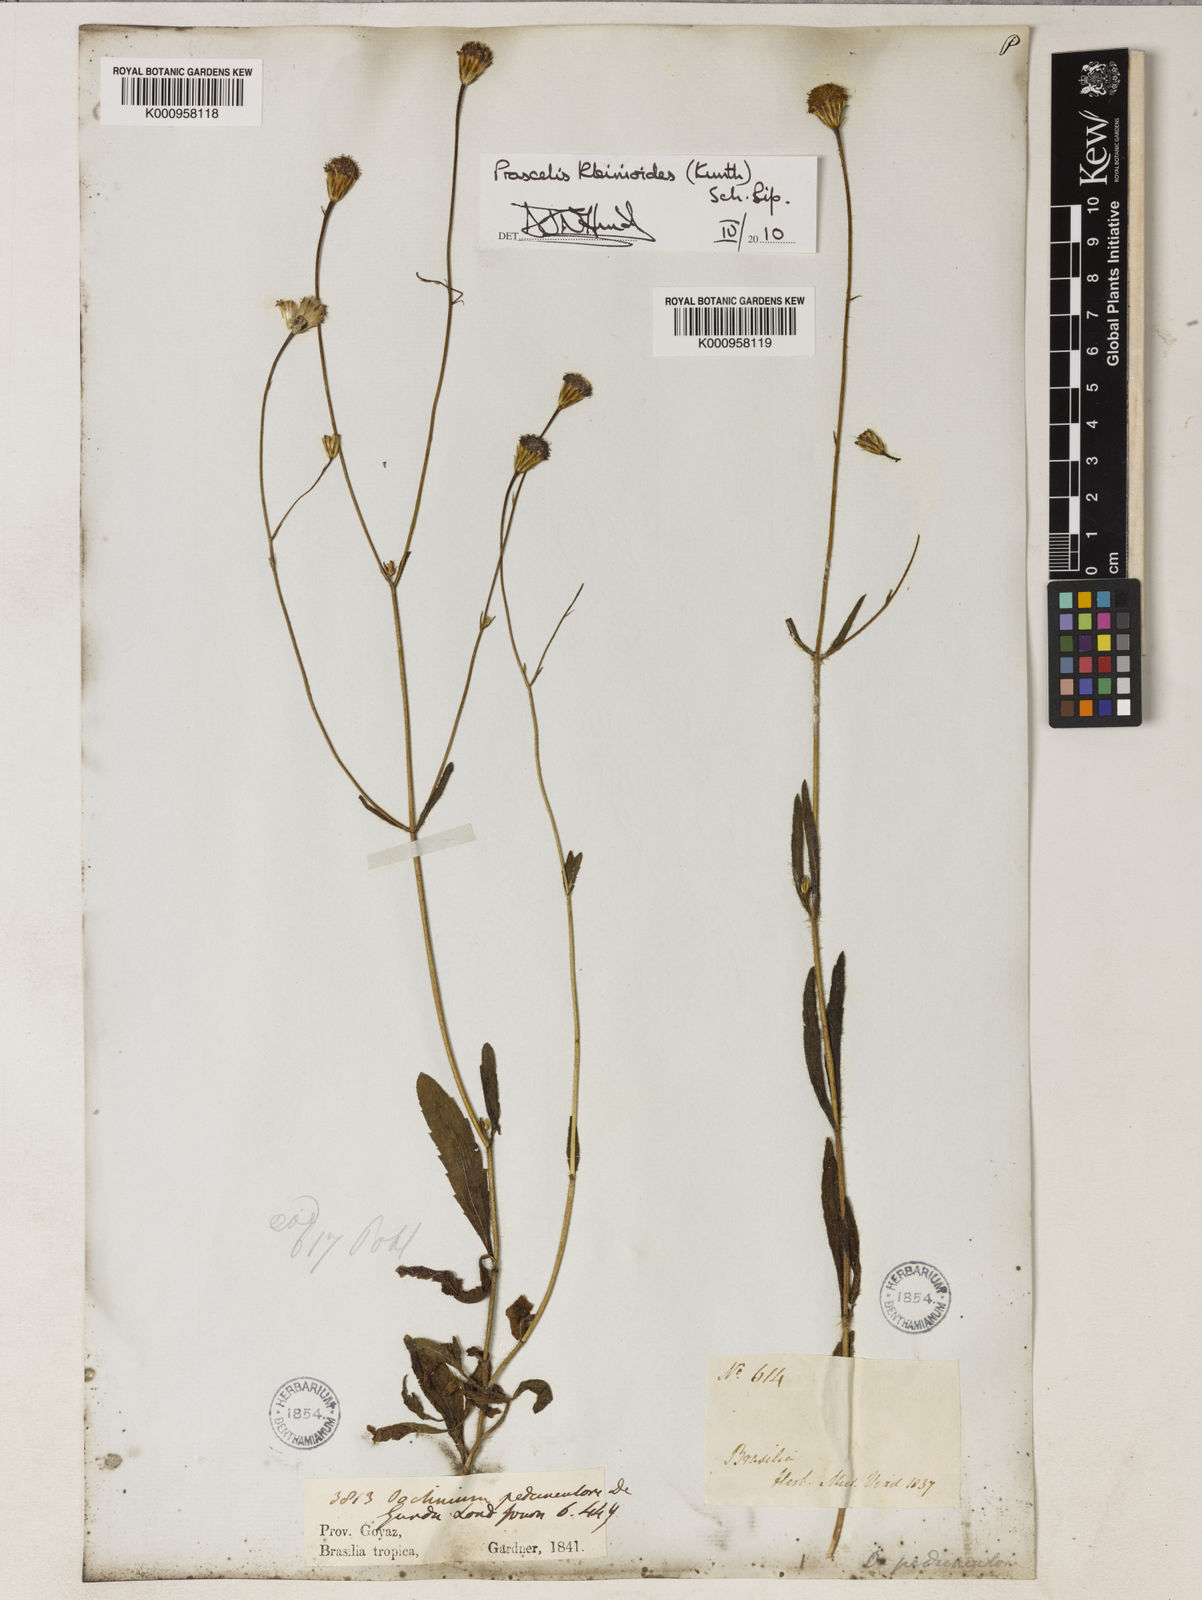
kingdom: Plantae
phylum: Tracheophyta
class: Magnoliopsida
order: Asterales
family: Asteraceae
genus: Praxelis
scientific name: Praxelis kleinioides
